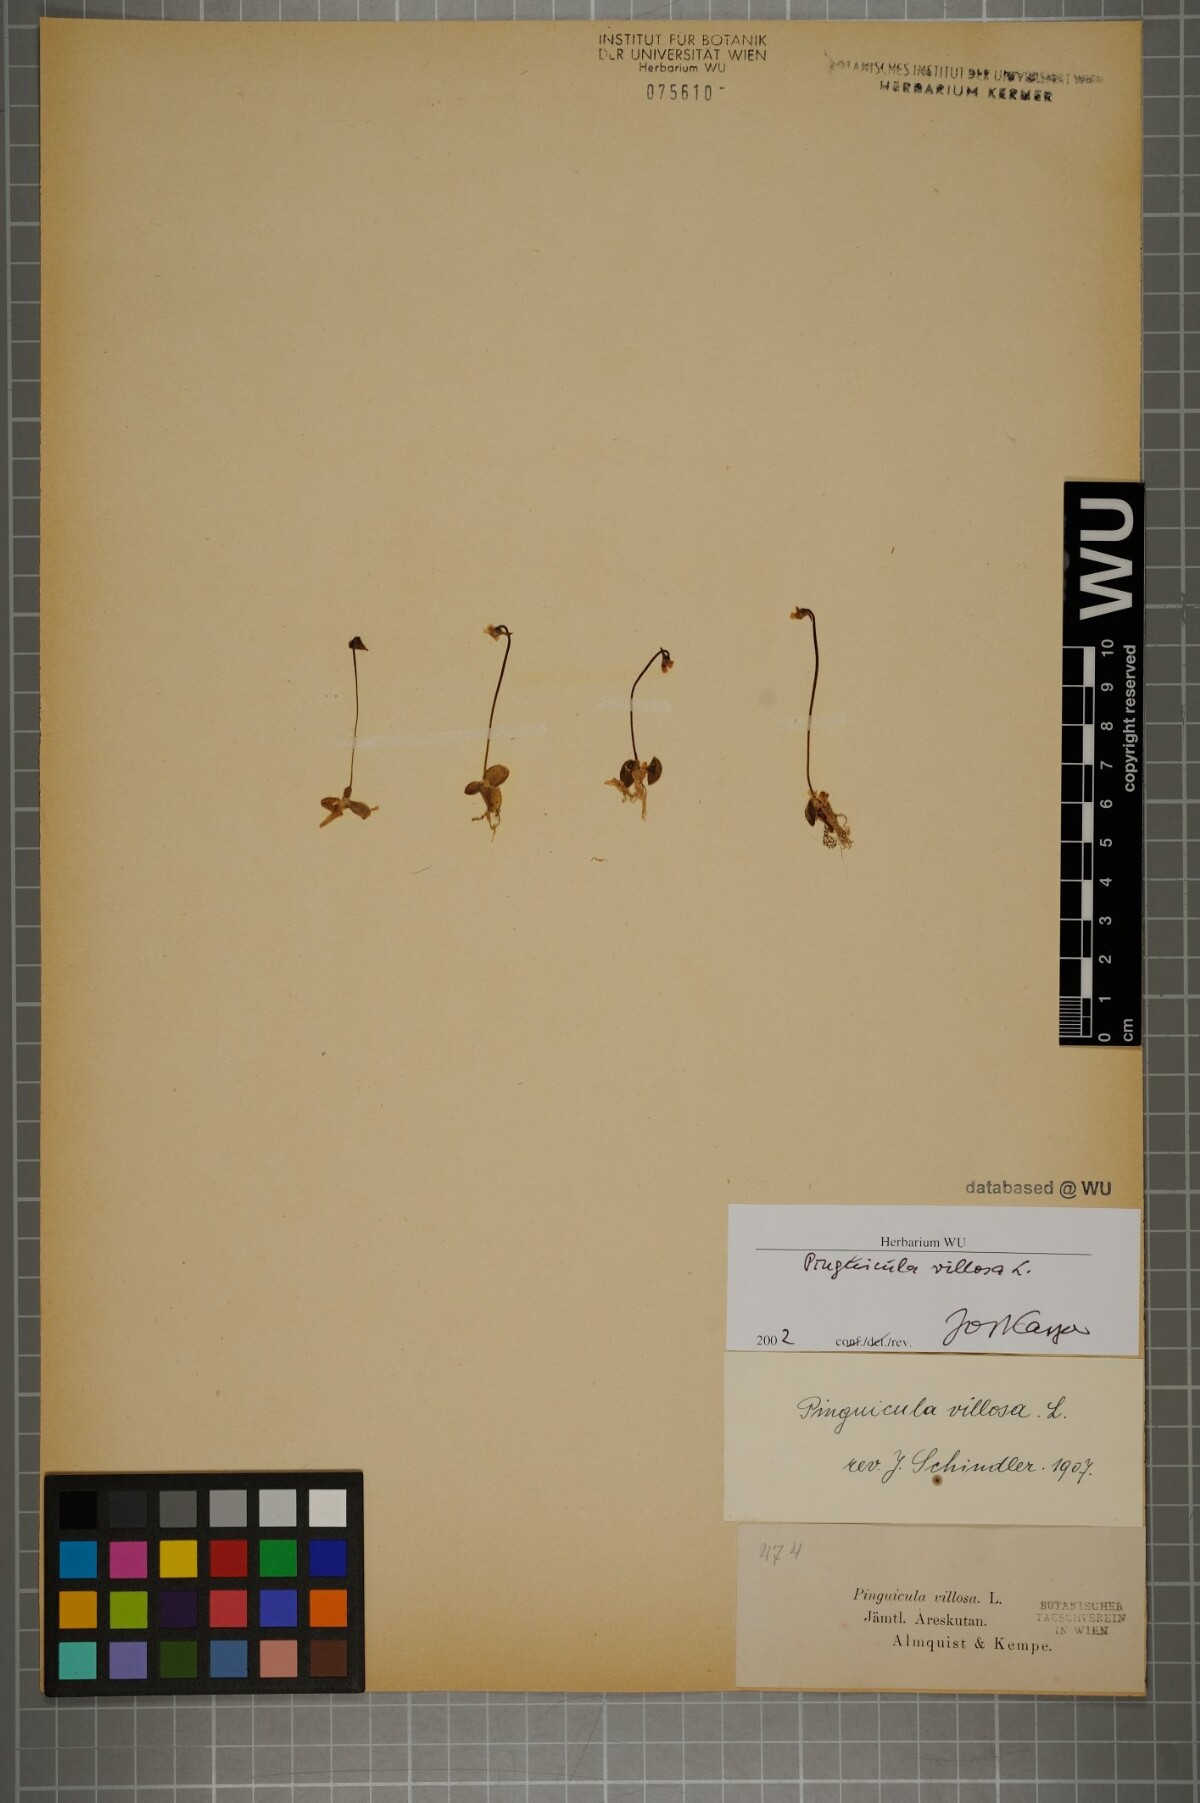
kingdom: Plantae
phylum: Tracheophyta
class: Magnoliopsida
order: Lamiales
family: Lentibulariaceae
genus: Pinguicula
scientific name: Pinguicula villosa
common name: Hairy butterwort
